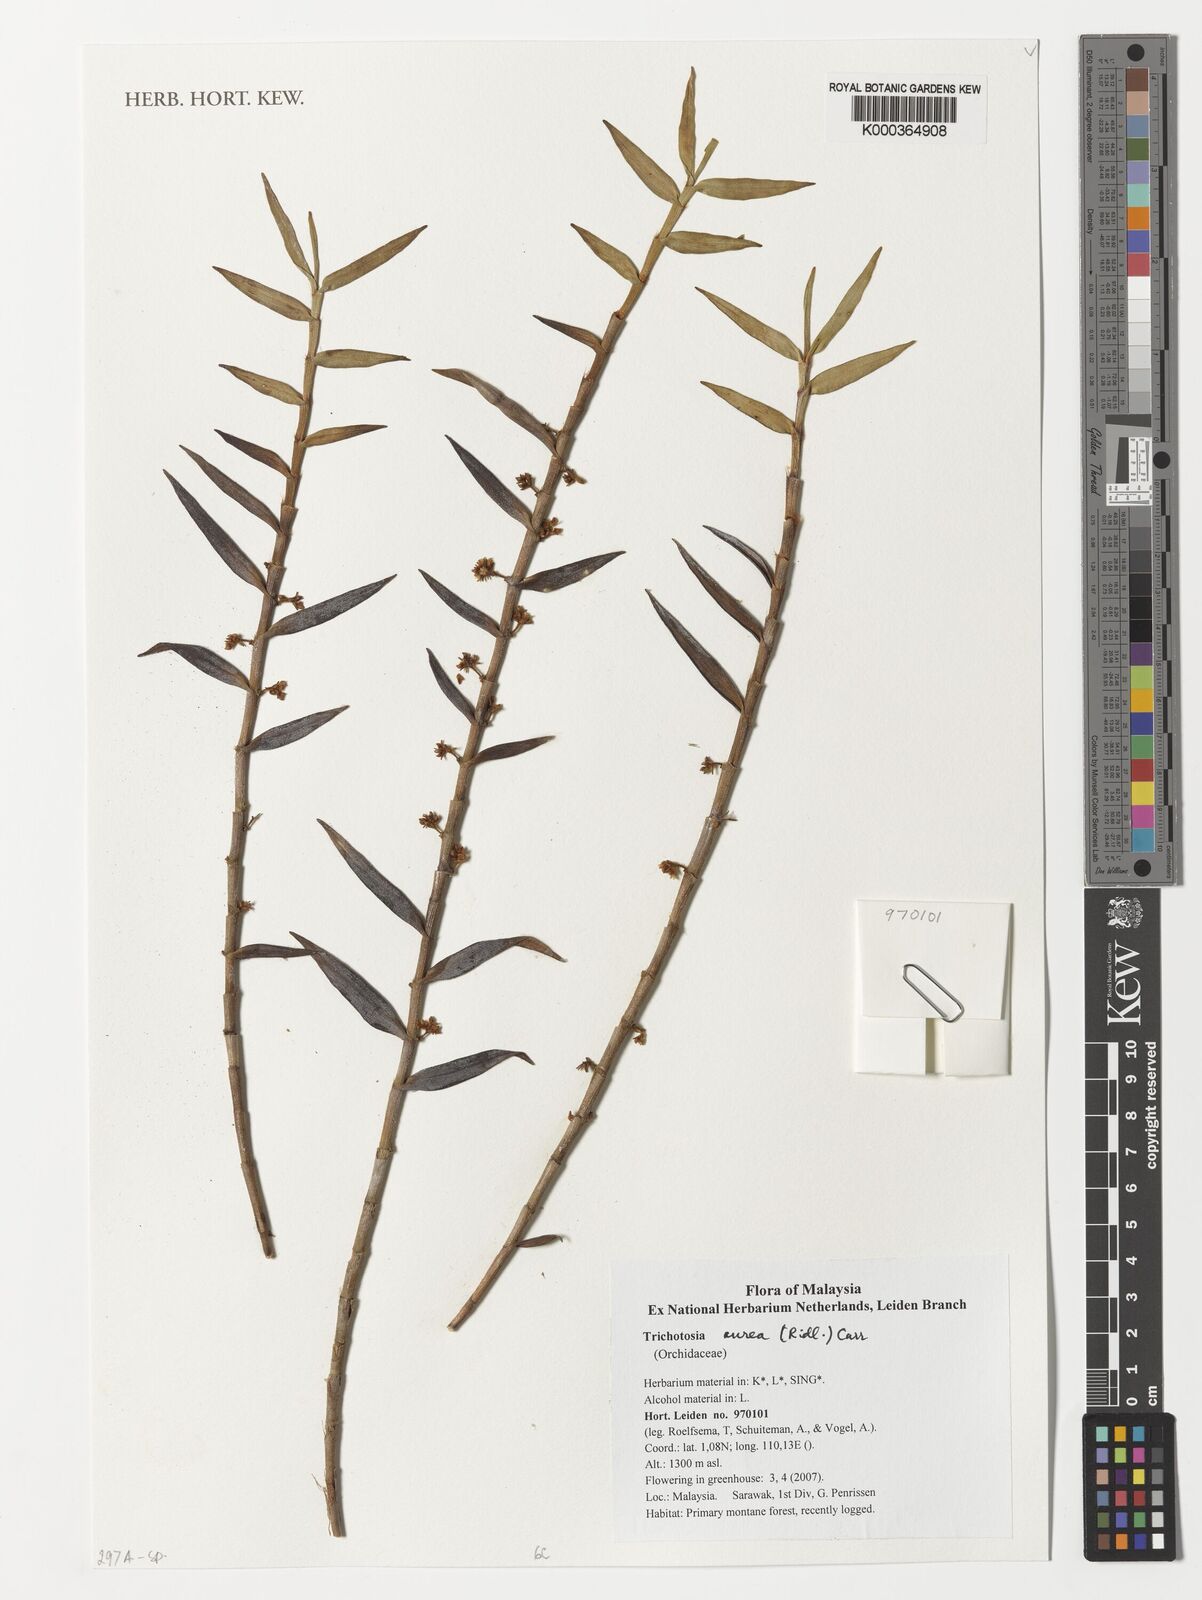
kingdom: Plantae
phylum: Tracheophyta
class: Liliopsida
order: Asparagales
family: Orchidaceae
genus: Trichotosia
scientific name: Trichotosia
